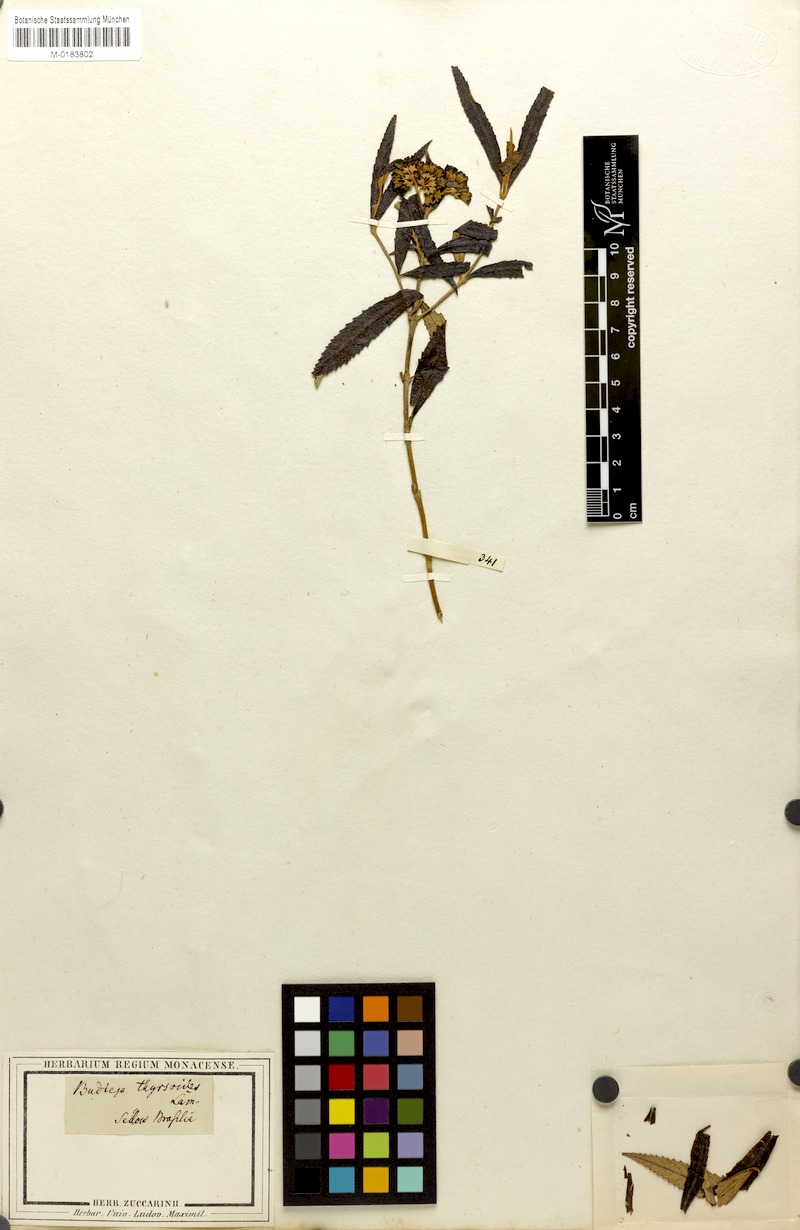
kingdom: Plantae
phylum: Tracheophyta
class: Magnoliopsida
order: Lamiales
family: Scrophulariaceae
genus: Buddleja
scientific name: Buddleja thyrsoides
